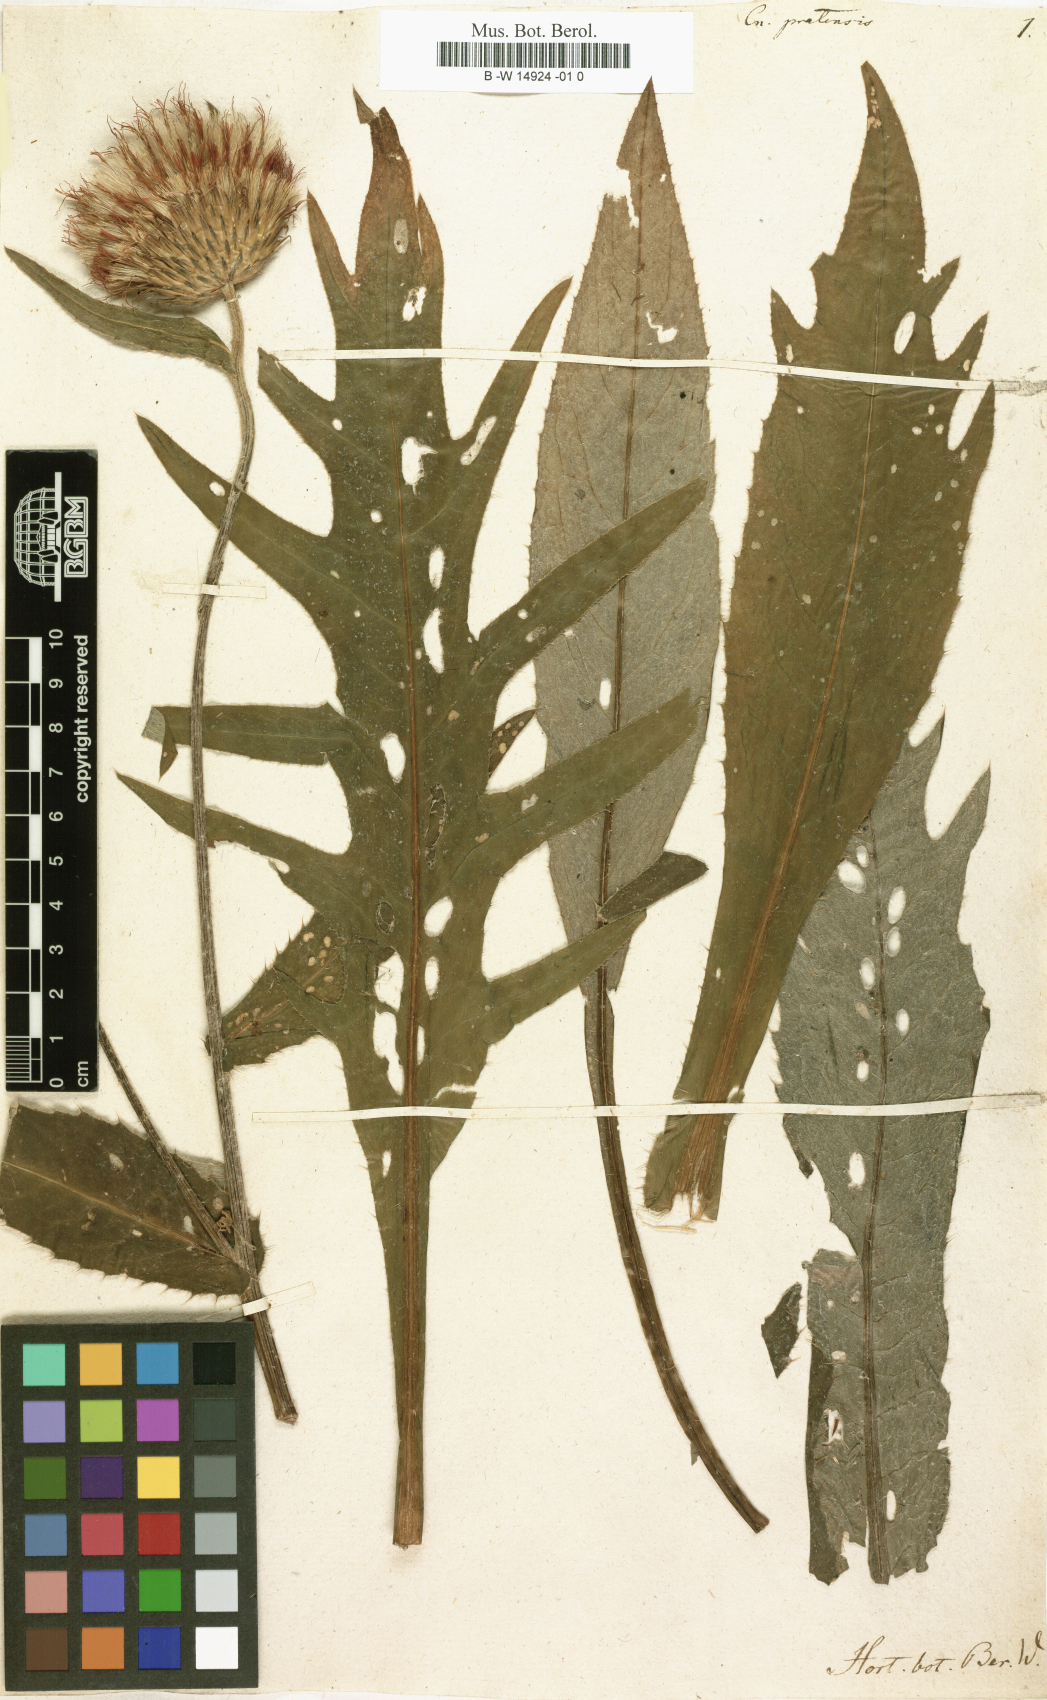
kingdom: Plantae
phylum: Tracheophyta
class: Magnoliopsida
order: Asterales
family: Asteraceae
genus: Cirsium
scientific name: Cirsium
